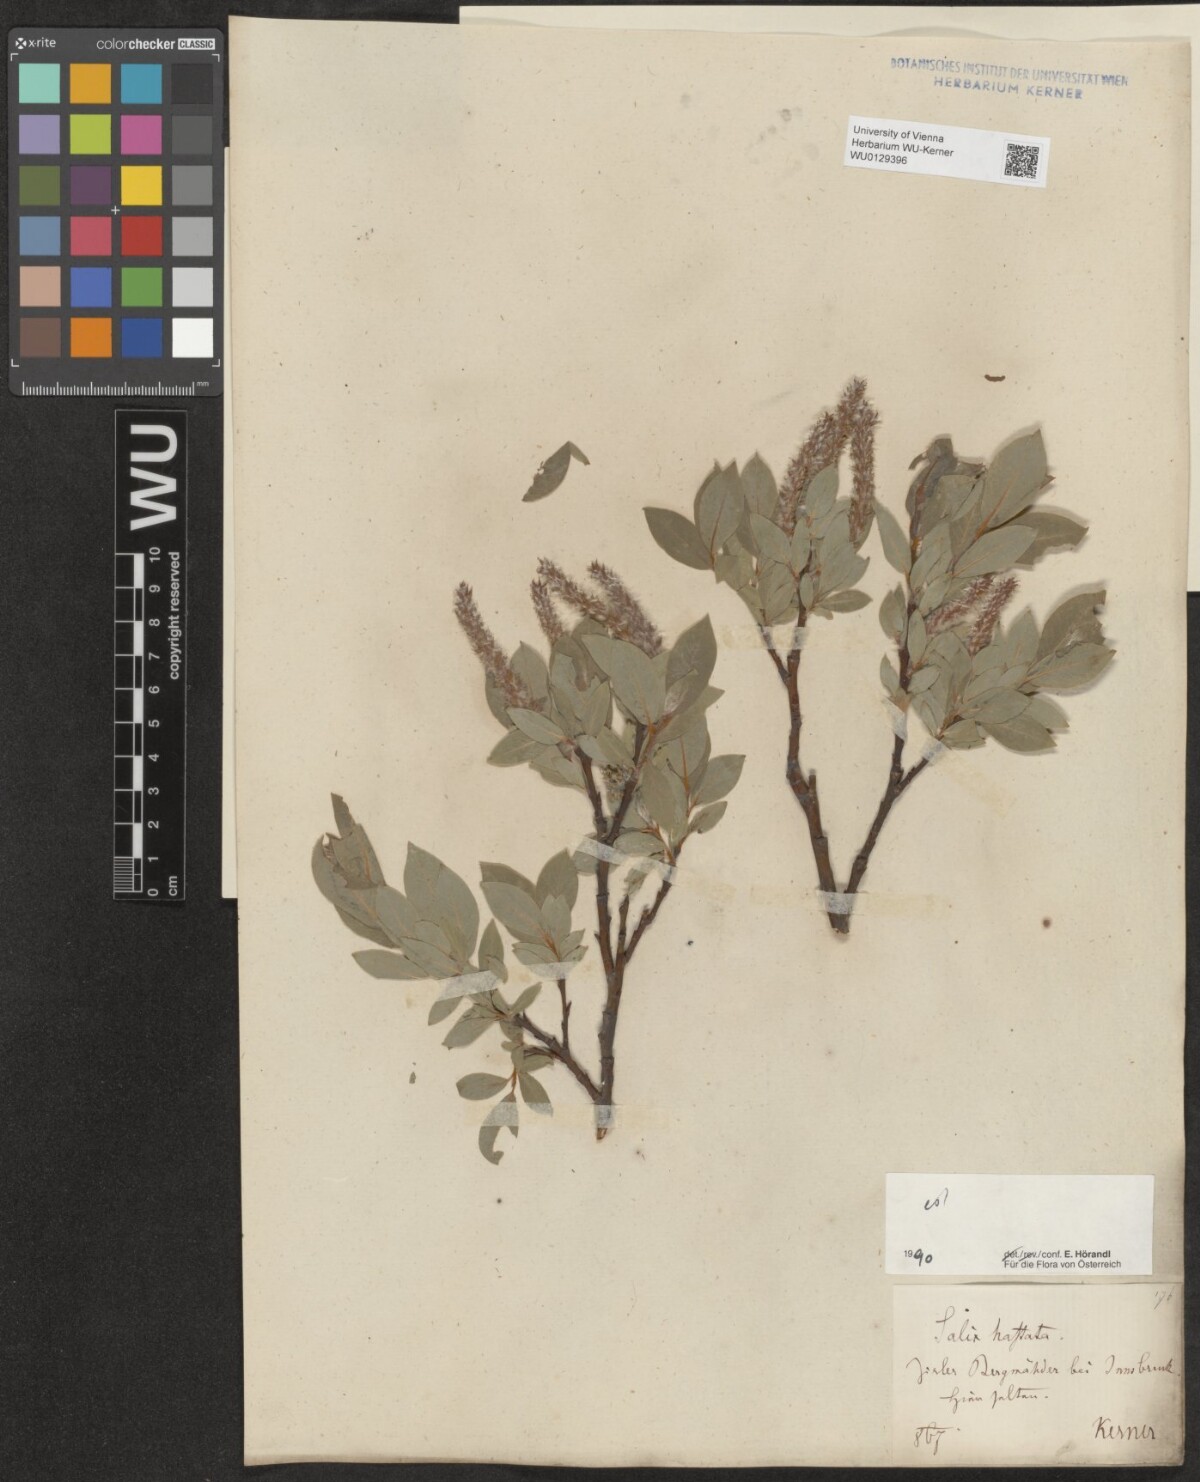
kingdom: Plantae
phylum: Tracheophyta
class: Magnoliopsida
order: Malpighiales
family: Salicaceae
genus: Salix
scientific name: Salix hastata
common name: Halberd willow
